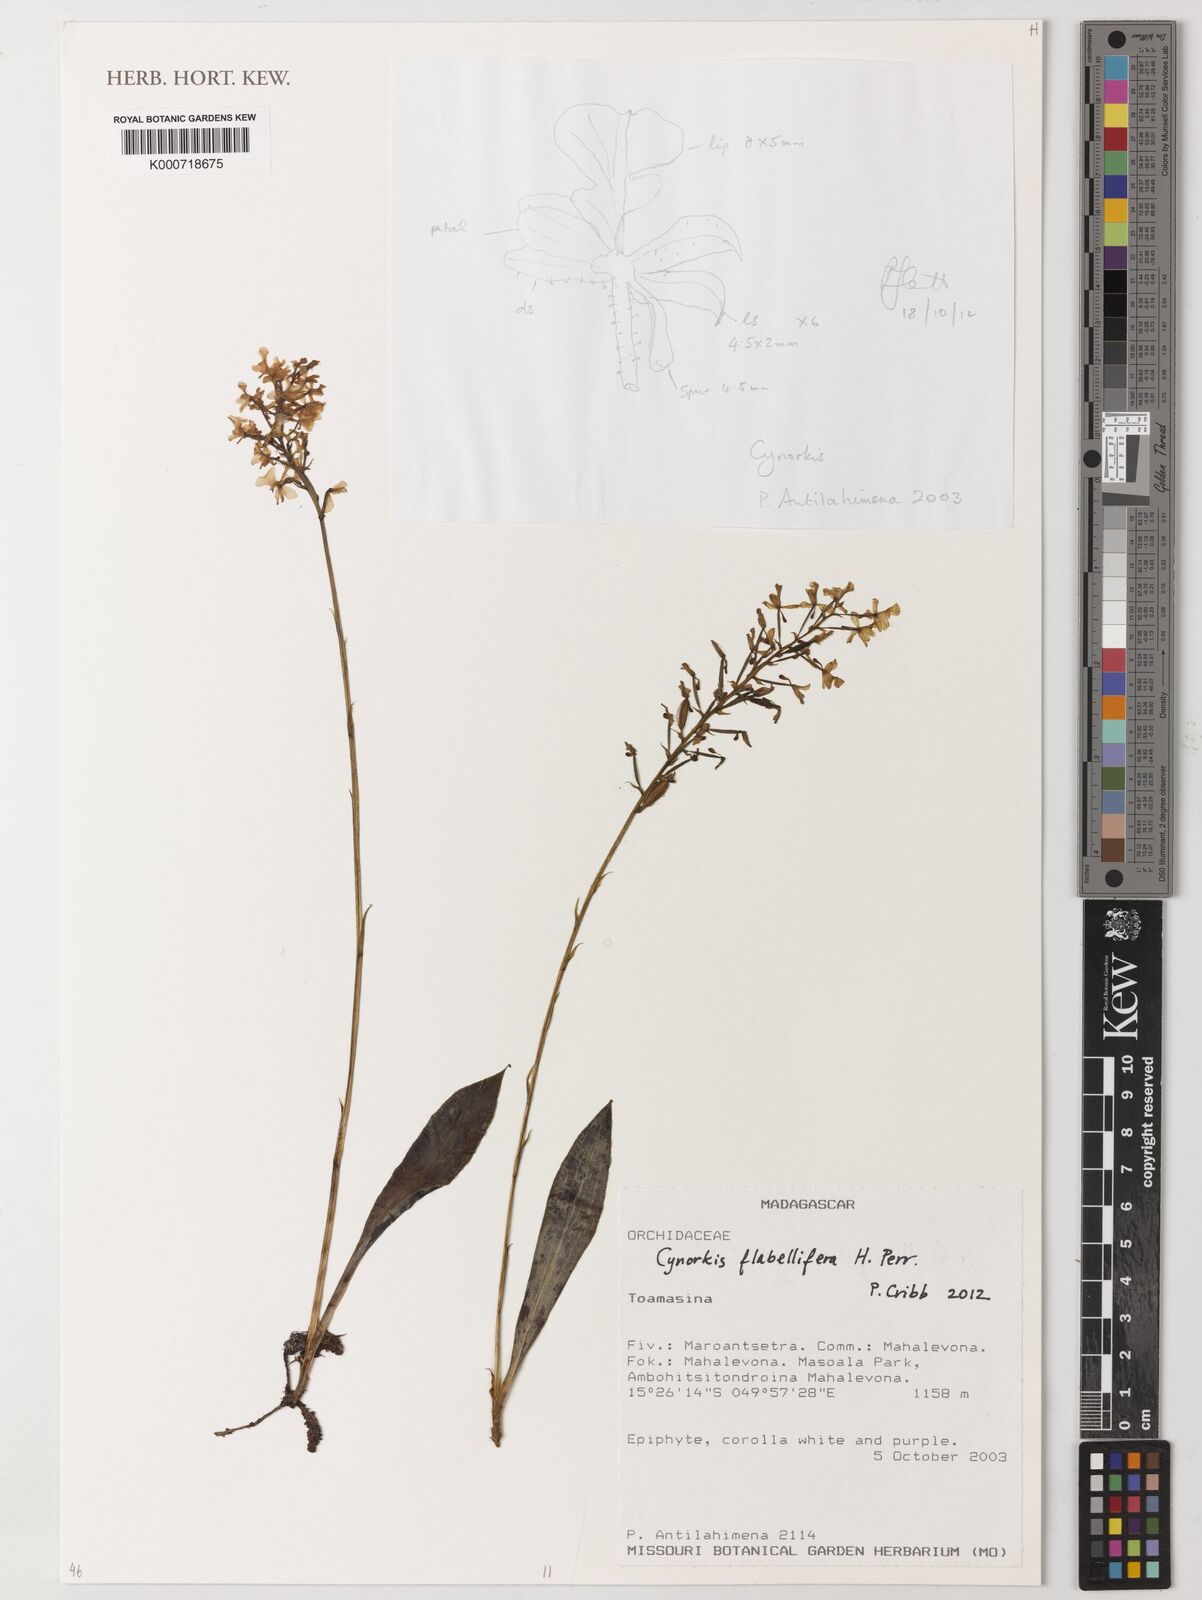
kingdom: Plantae
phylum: Tracheophyta
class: Liliopsida
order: Asparagales
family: Orchidaceae
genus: Cynorkis
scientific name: Cynorkis flabellifera
